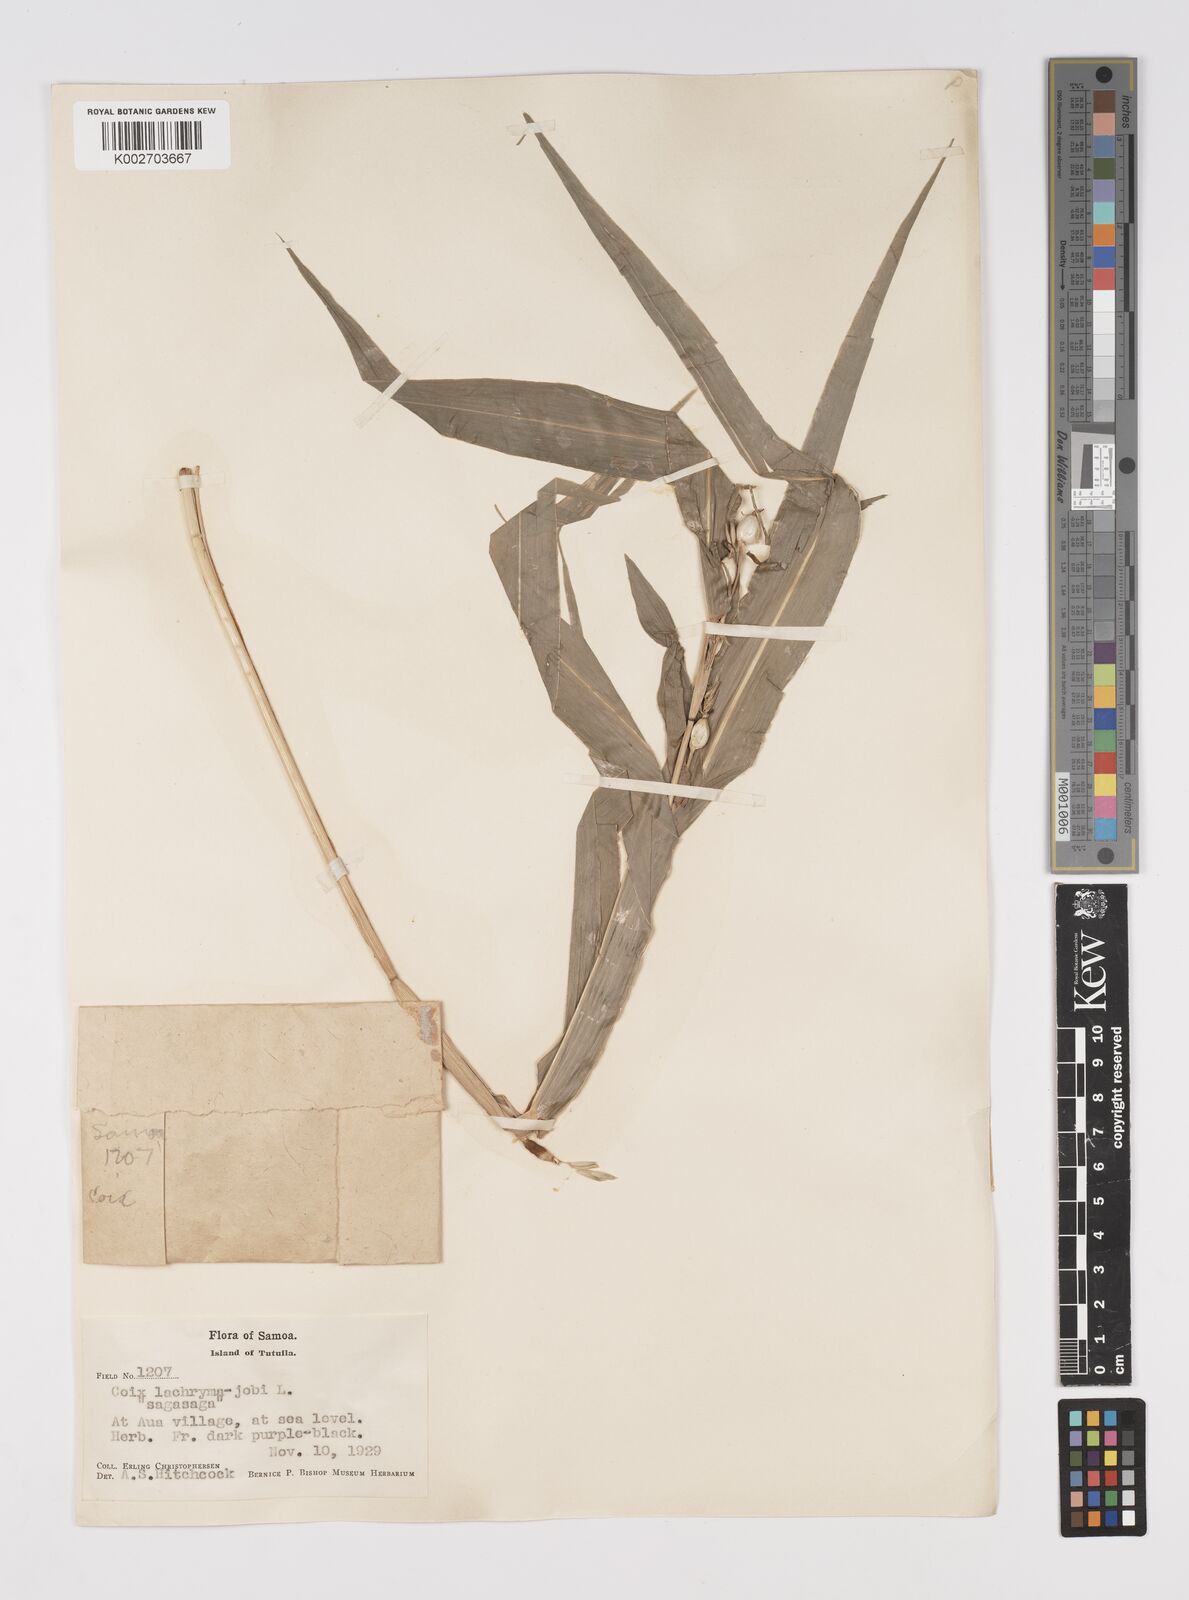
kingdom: Plantae
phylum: Tracheophyta
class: Liliopsida
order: Poales
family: Poaceae
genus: Coix
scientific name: Coix lacryma-jobi
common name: Job's tears
